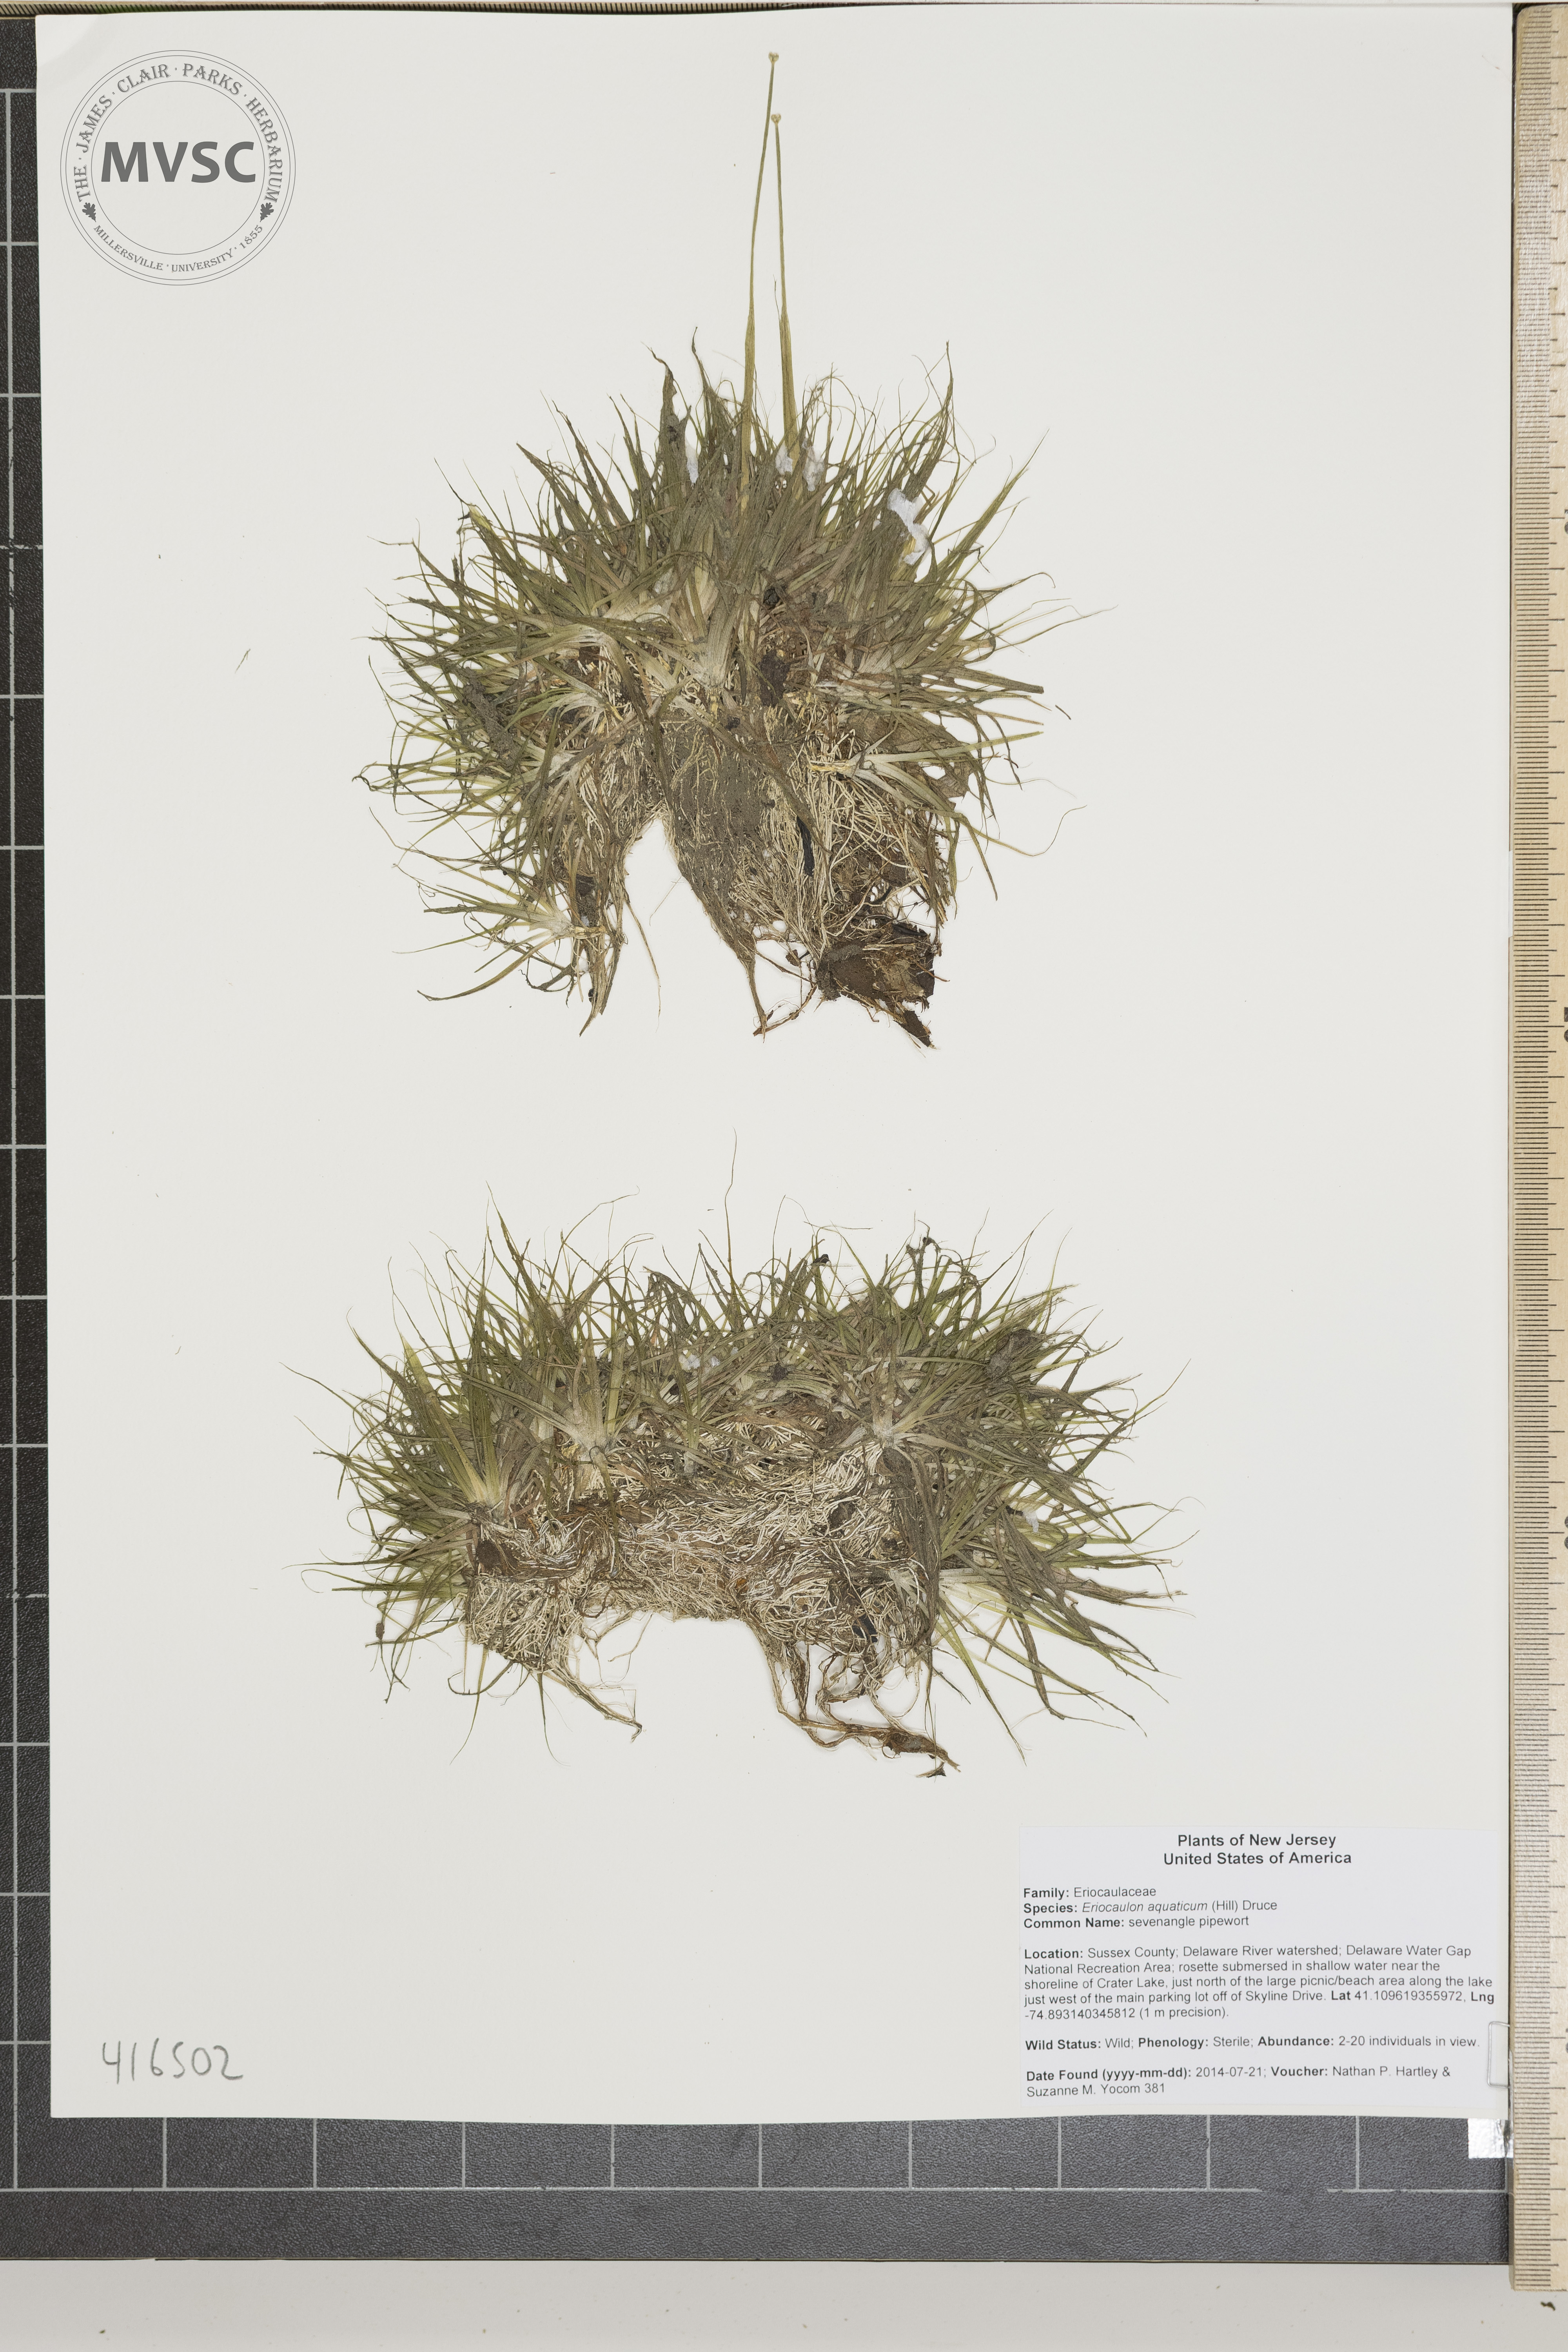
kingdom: Plantae
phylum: Tracheophyta
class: Liliopsida
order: Poales
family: Eriocaulaceae
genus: Eriocaulon
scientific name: Eriocaulon aquaticum
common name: sevenangle pipewort
